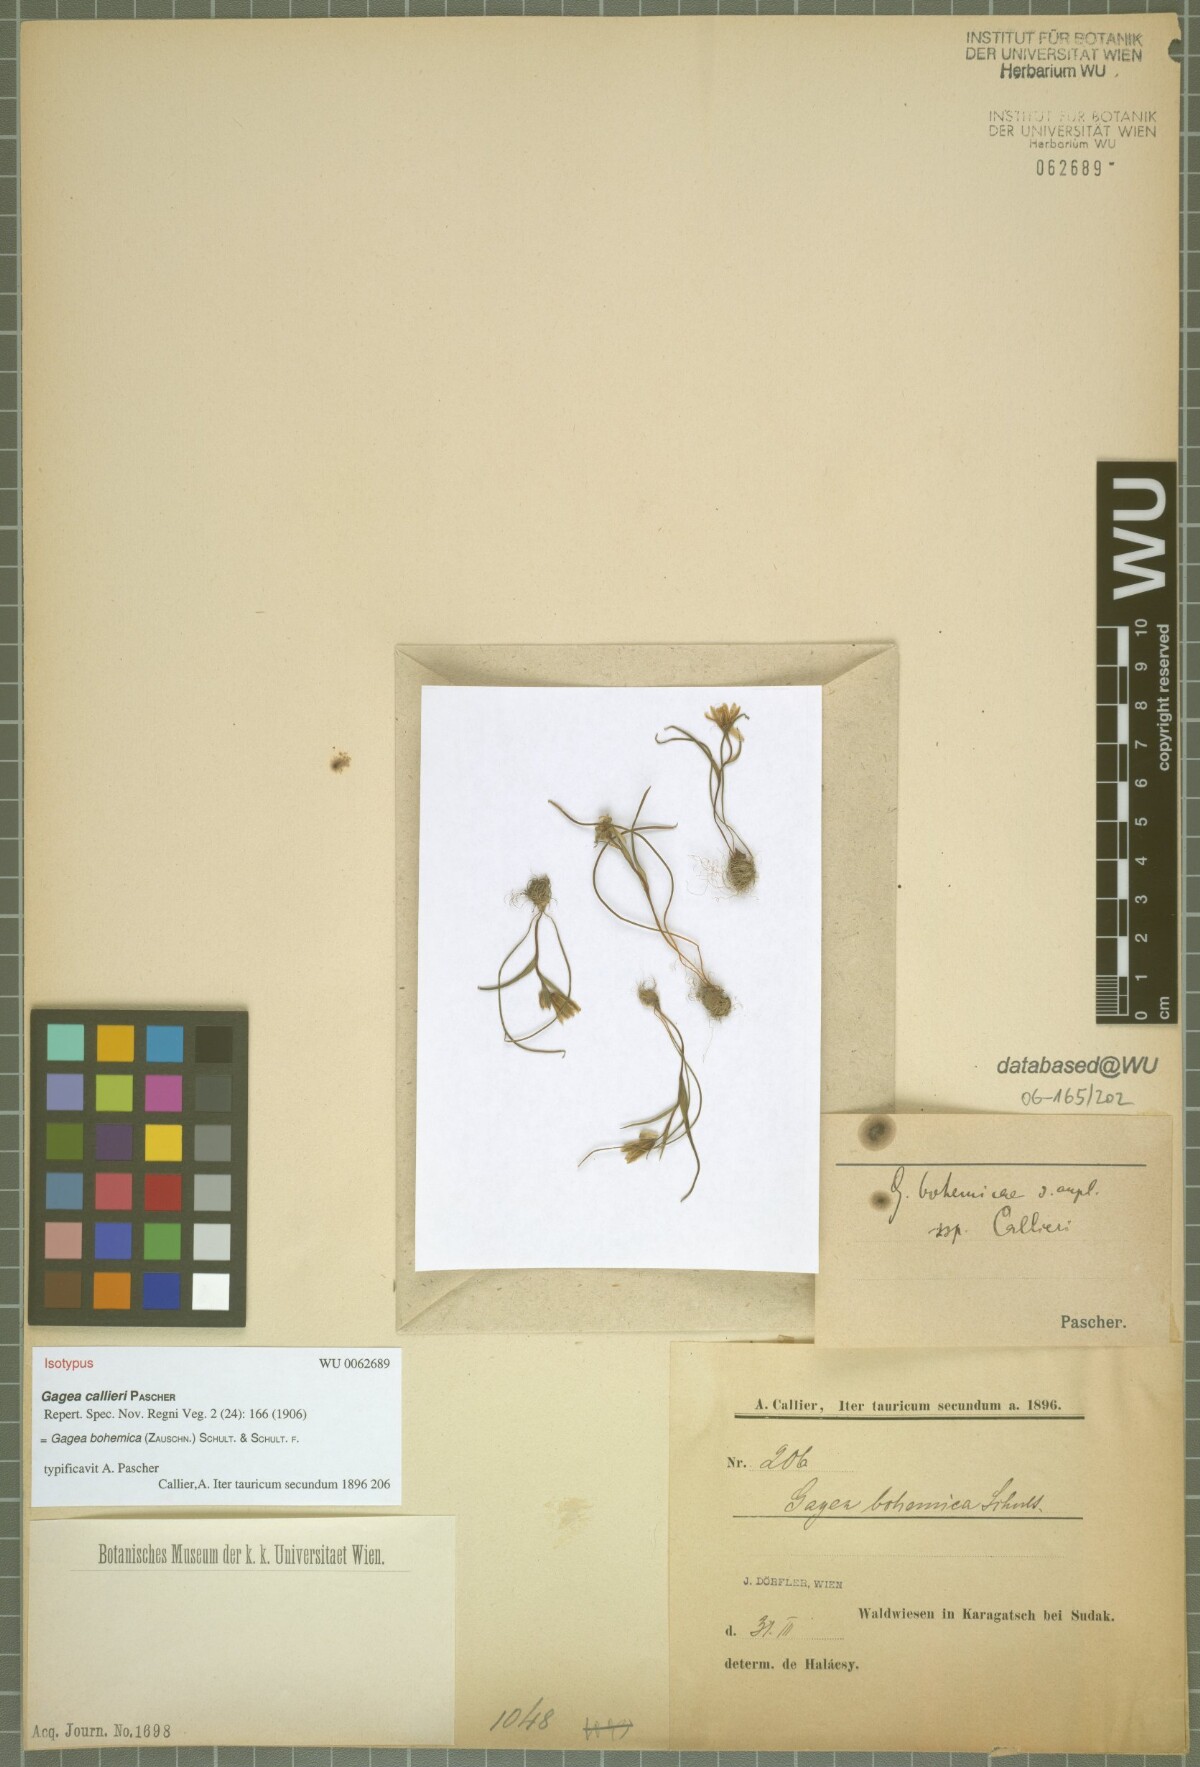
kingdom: Plantae
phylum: Tracheophyta
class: Liliopsida
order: Liliales
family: Liliaceae
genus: Gagea
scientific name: Gagea bohemica
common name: Early star-of-bethlehem
